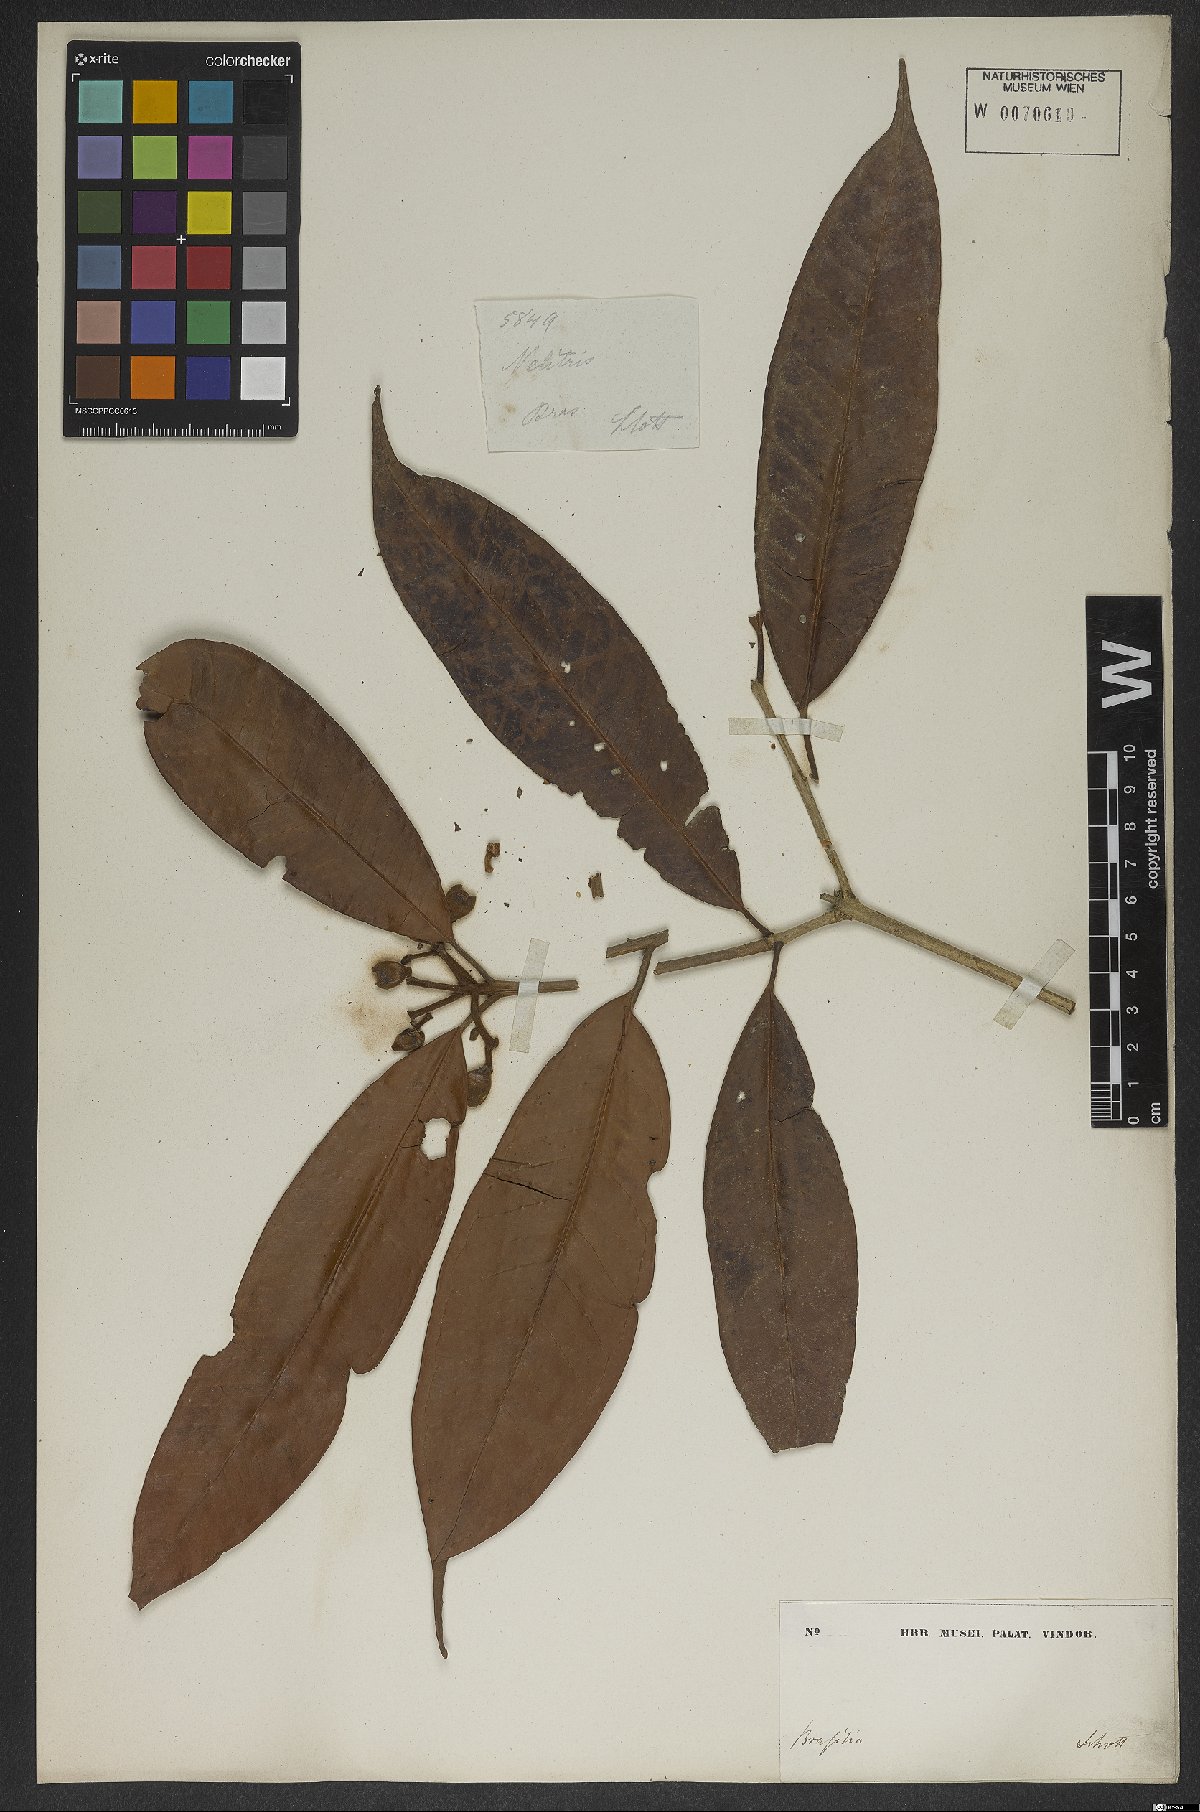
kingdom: Plantae
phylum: Tracheophyta
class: Magnoliopsida
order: Myrtales
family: Myrtaceae
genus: Eugenia
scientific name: Eugenia cambucae
